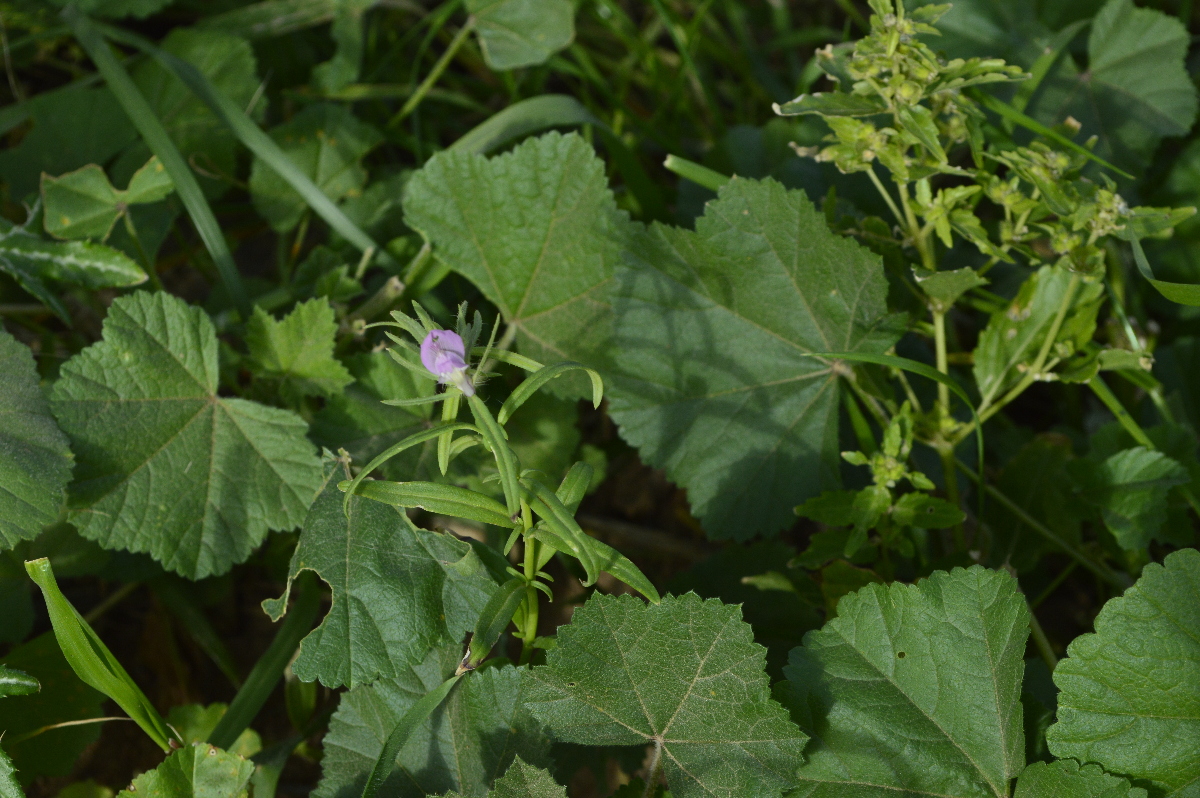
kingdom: Plantae
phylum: Tracheophyta
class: Magnoliopsida
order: Lamiales
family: Plantaginaceae
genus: Misopates
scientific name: Misopates orontium
